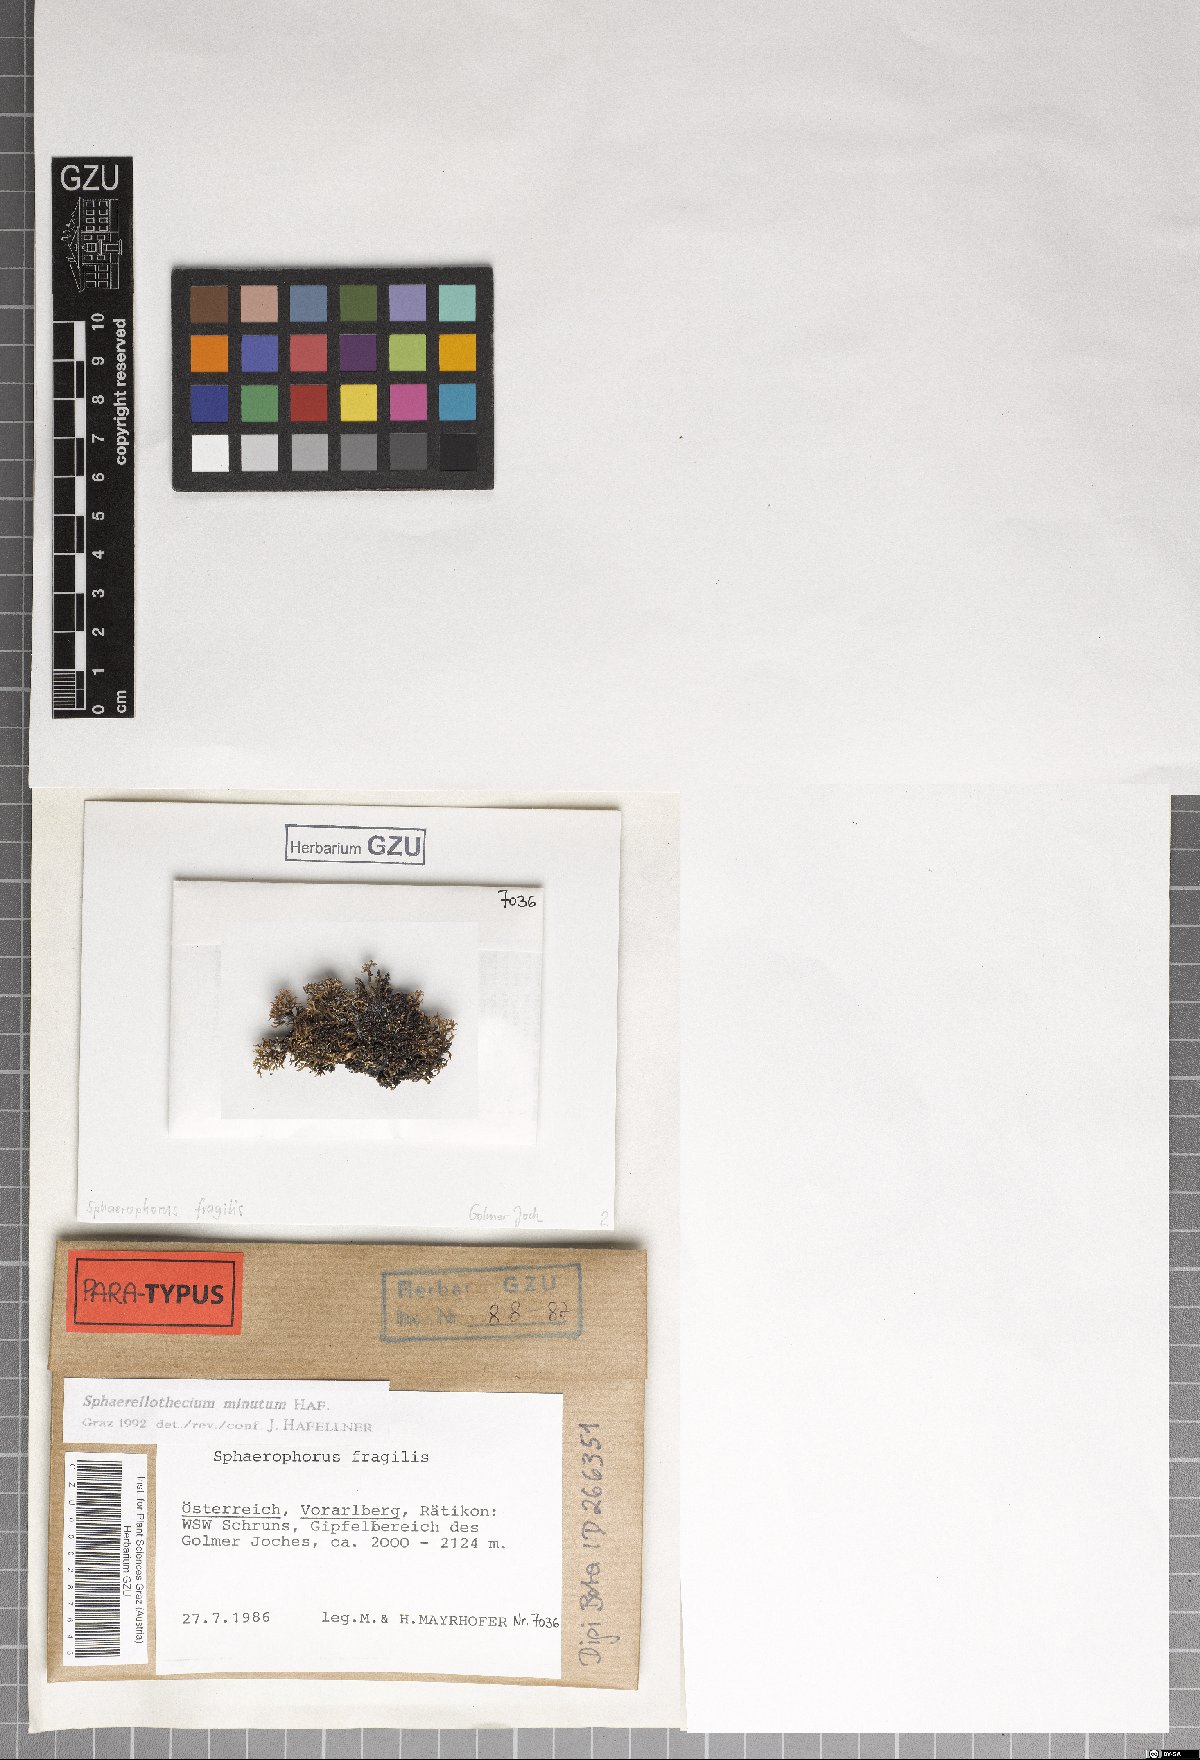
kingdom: Fungi
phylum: Ascomycota
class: Dothideomycetes
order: Mycosphaerellales
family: Mycosphaerellaceae
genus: Sphaerellothecium
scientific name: Sphaerellothecium minutum
